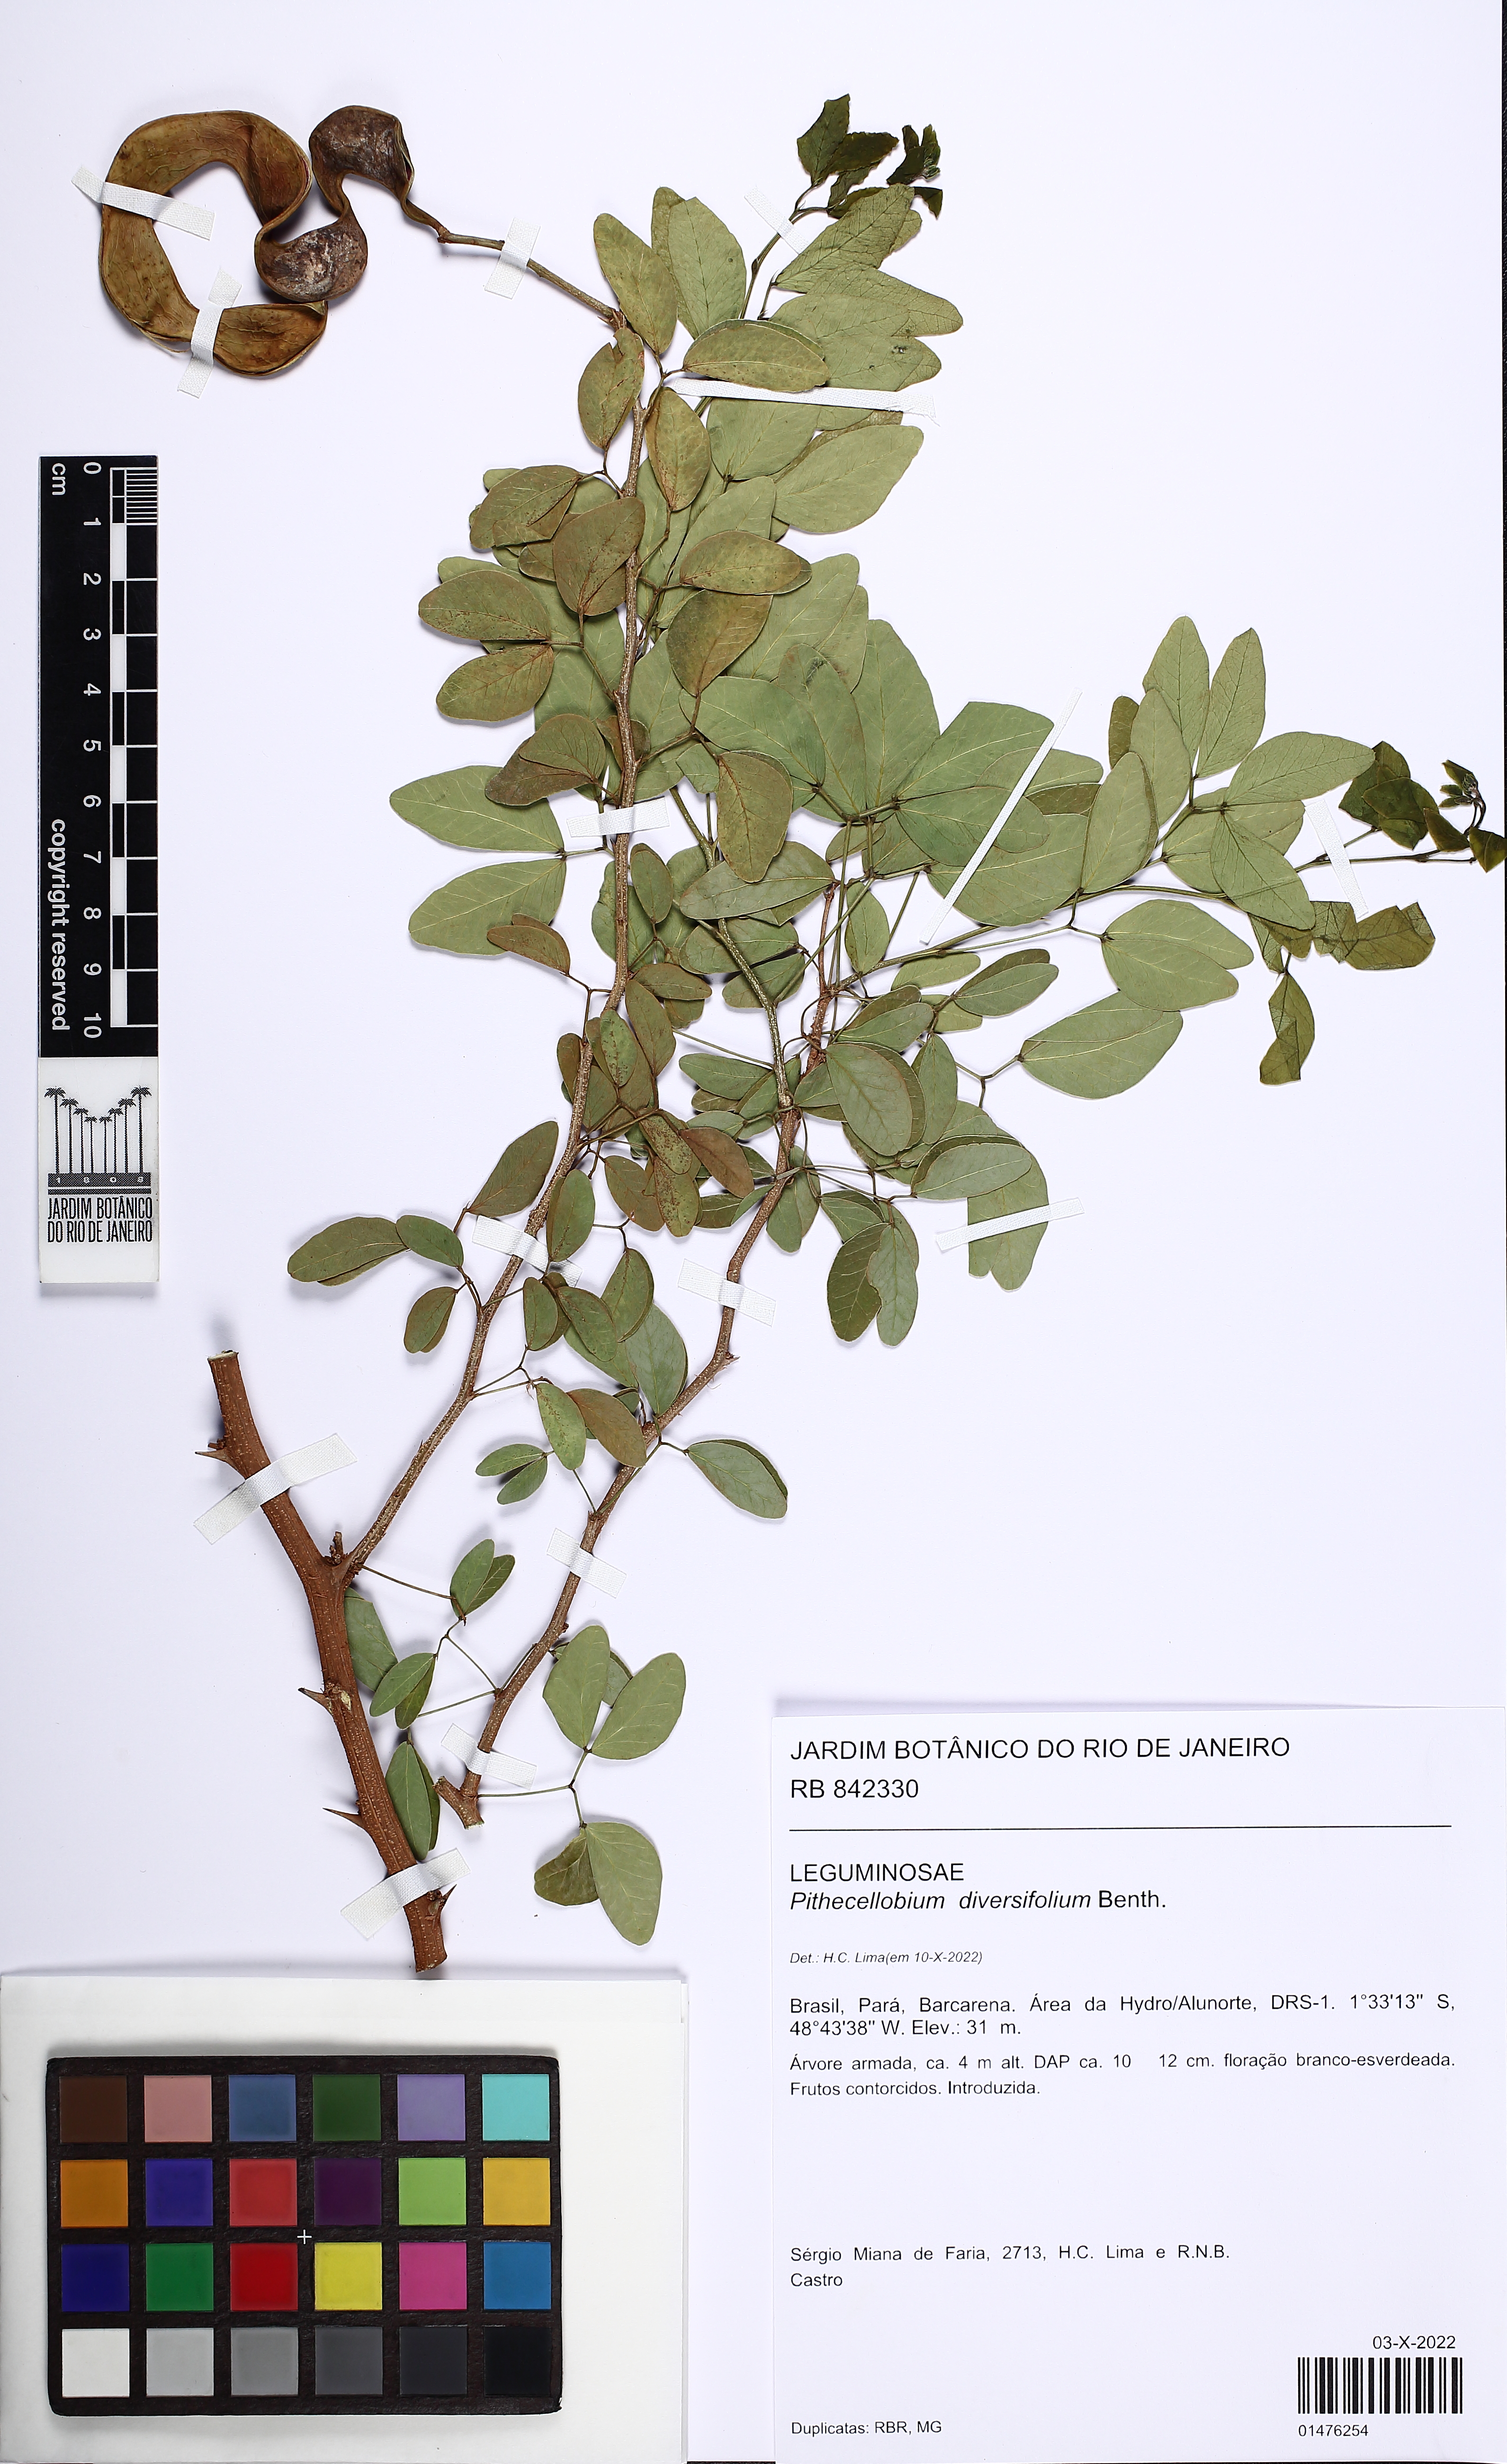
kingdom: Plantae
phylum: Tracheophyta
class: Magnoliopsida
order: Fabales
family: Fabaceae
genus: Pithecellobium
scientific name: Pithecellobium diversifolium
